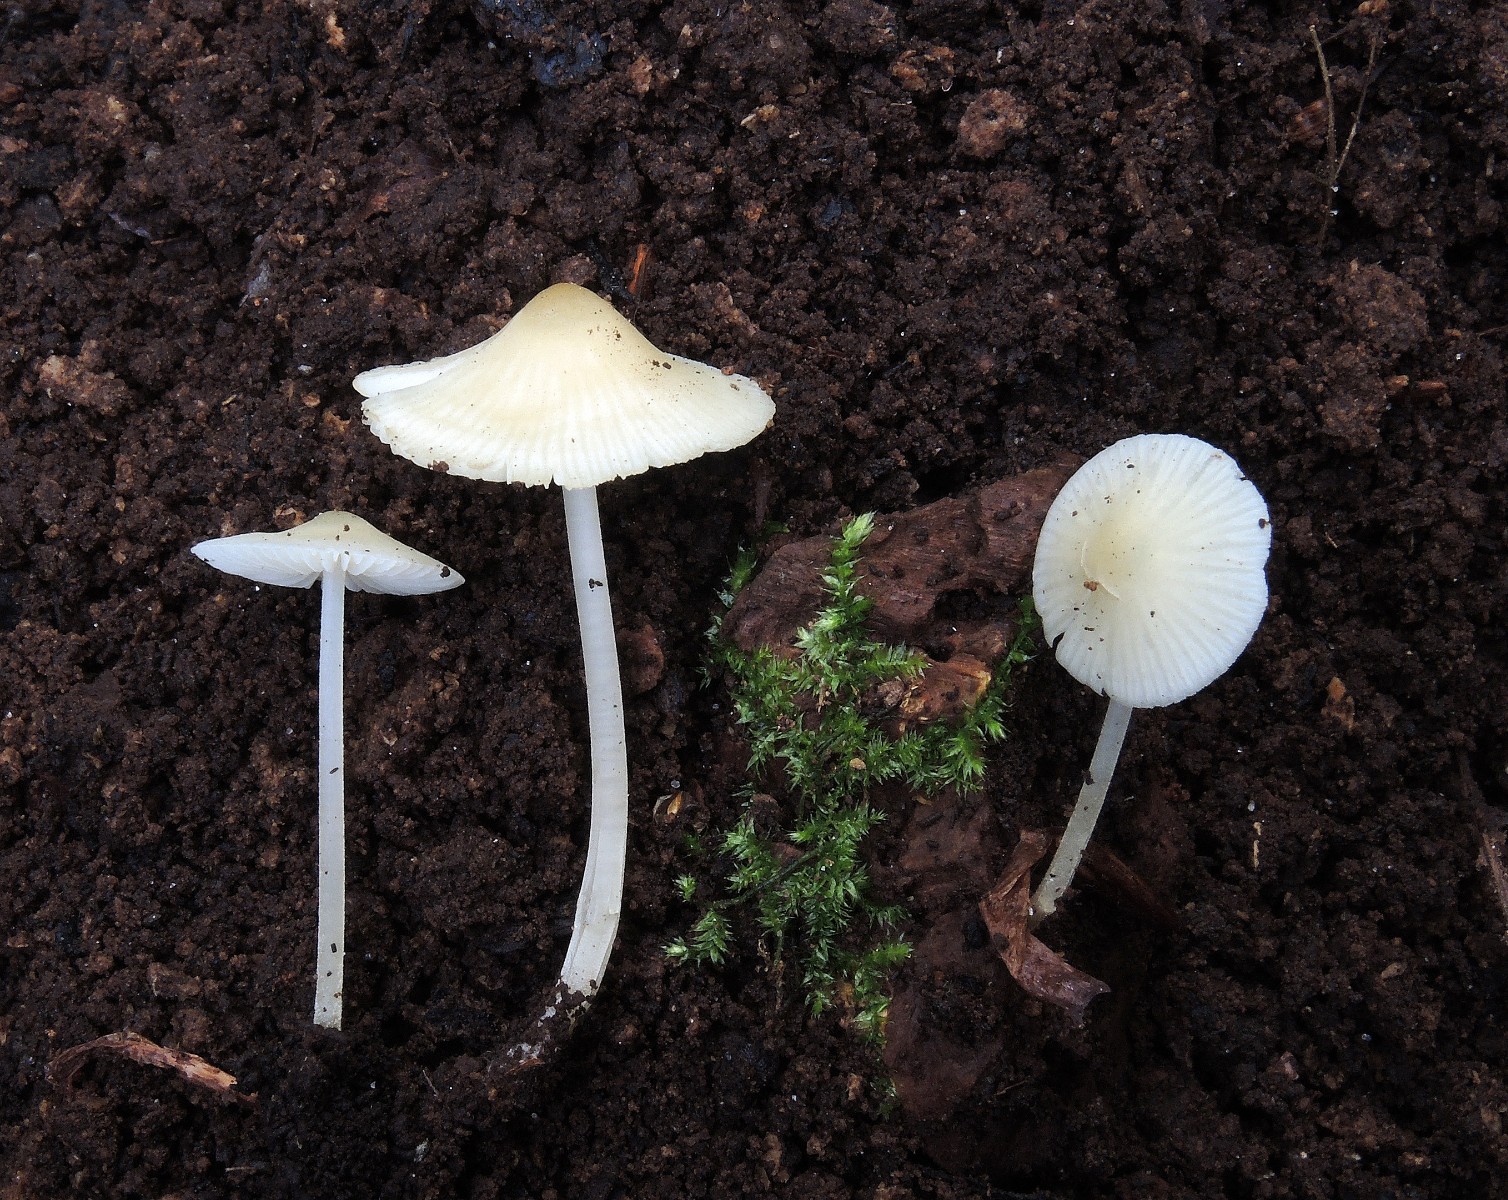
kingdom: Fungi
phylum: Basidiomycota
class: Agaricomycetes
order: Agaricales
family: Porotheleaceae
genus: Phloeomana
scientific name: Phloeomana minutula
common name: bleg huesvamp
